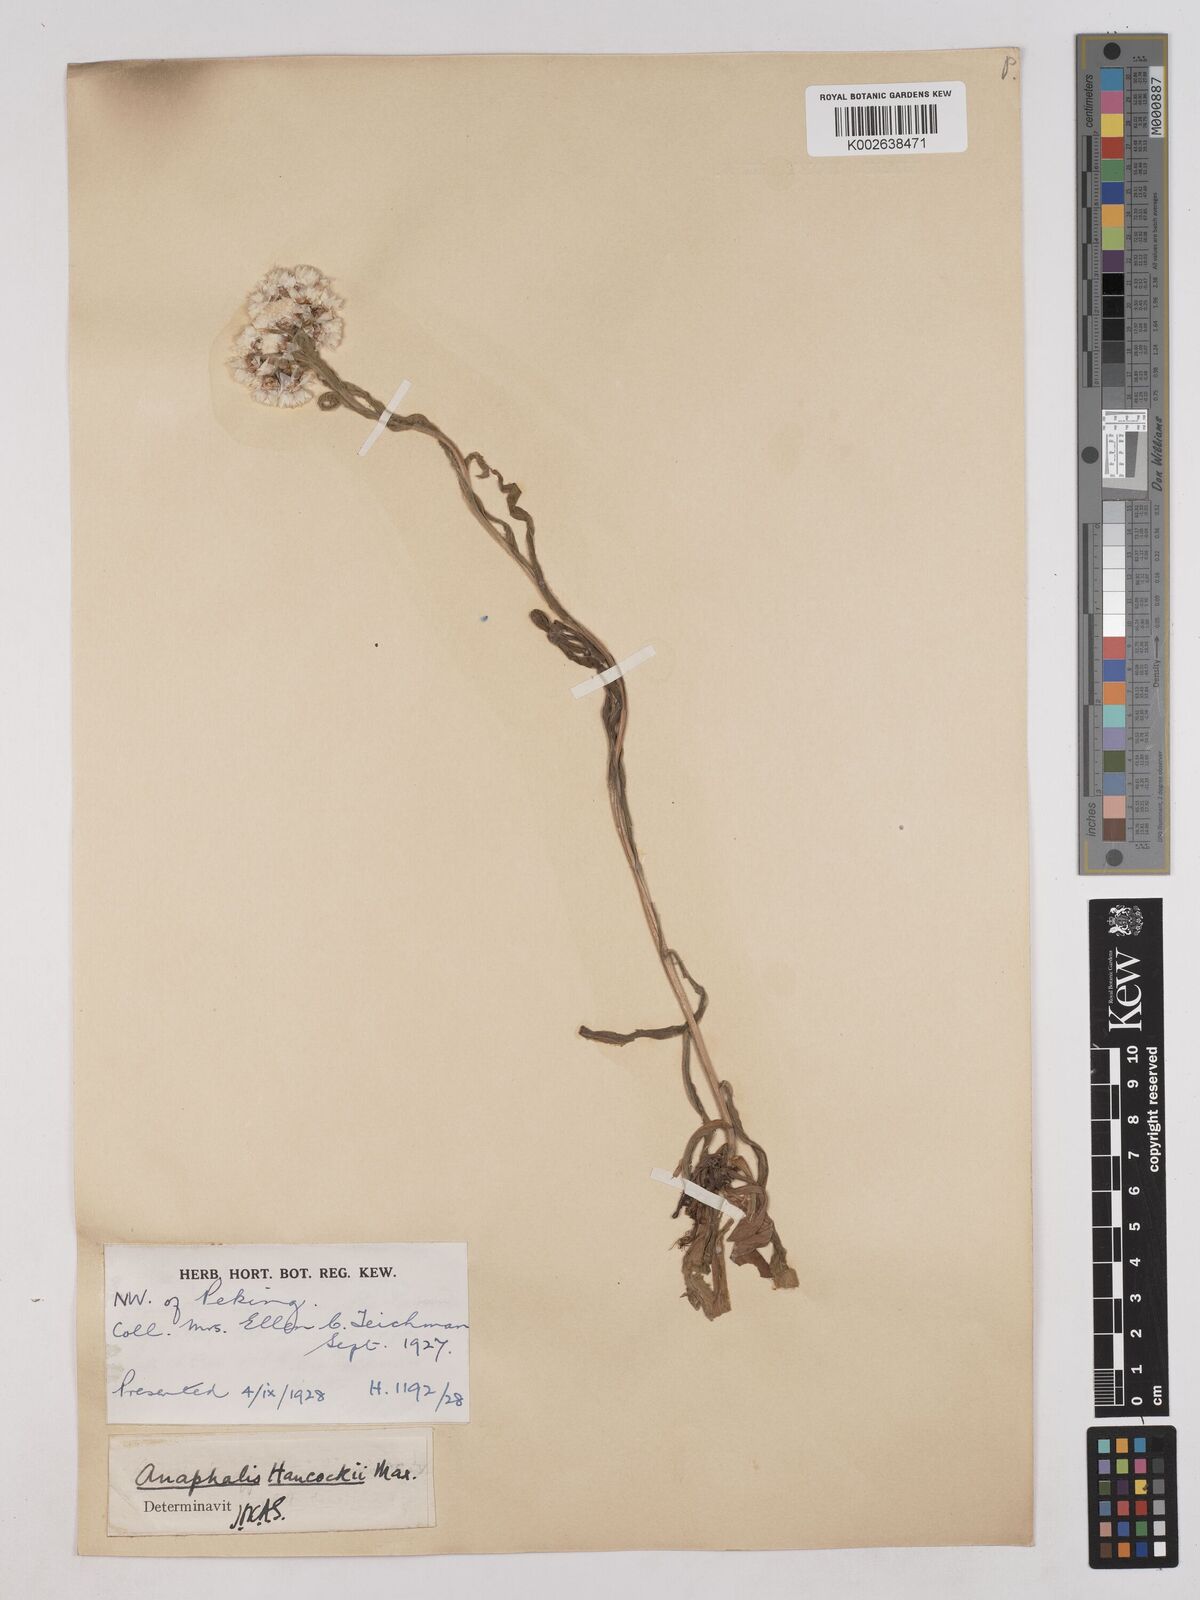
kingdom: Plantae
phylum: Tracheophyta
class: Magnoliopsida
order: Asterales
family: Asteraceae
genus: Anaphalis
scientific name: Anaphalis hancockii
